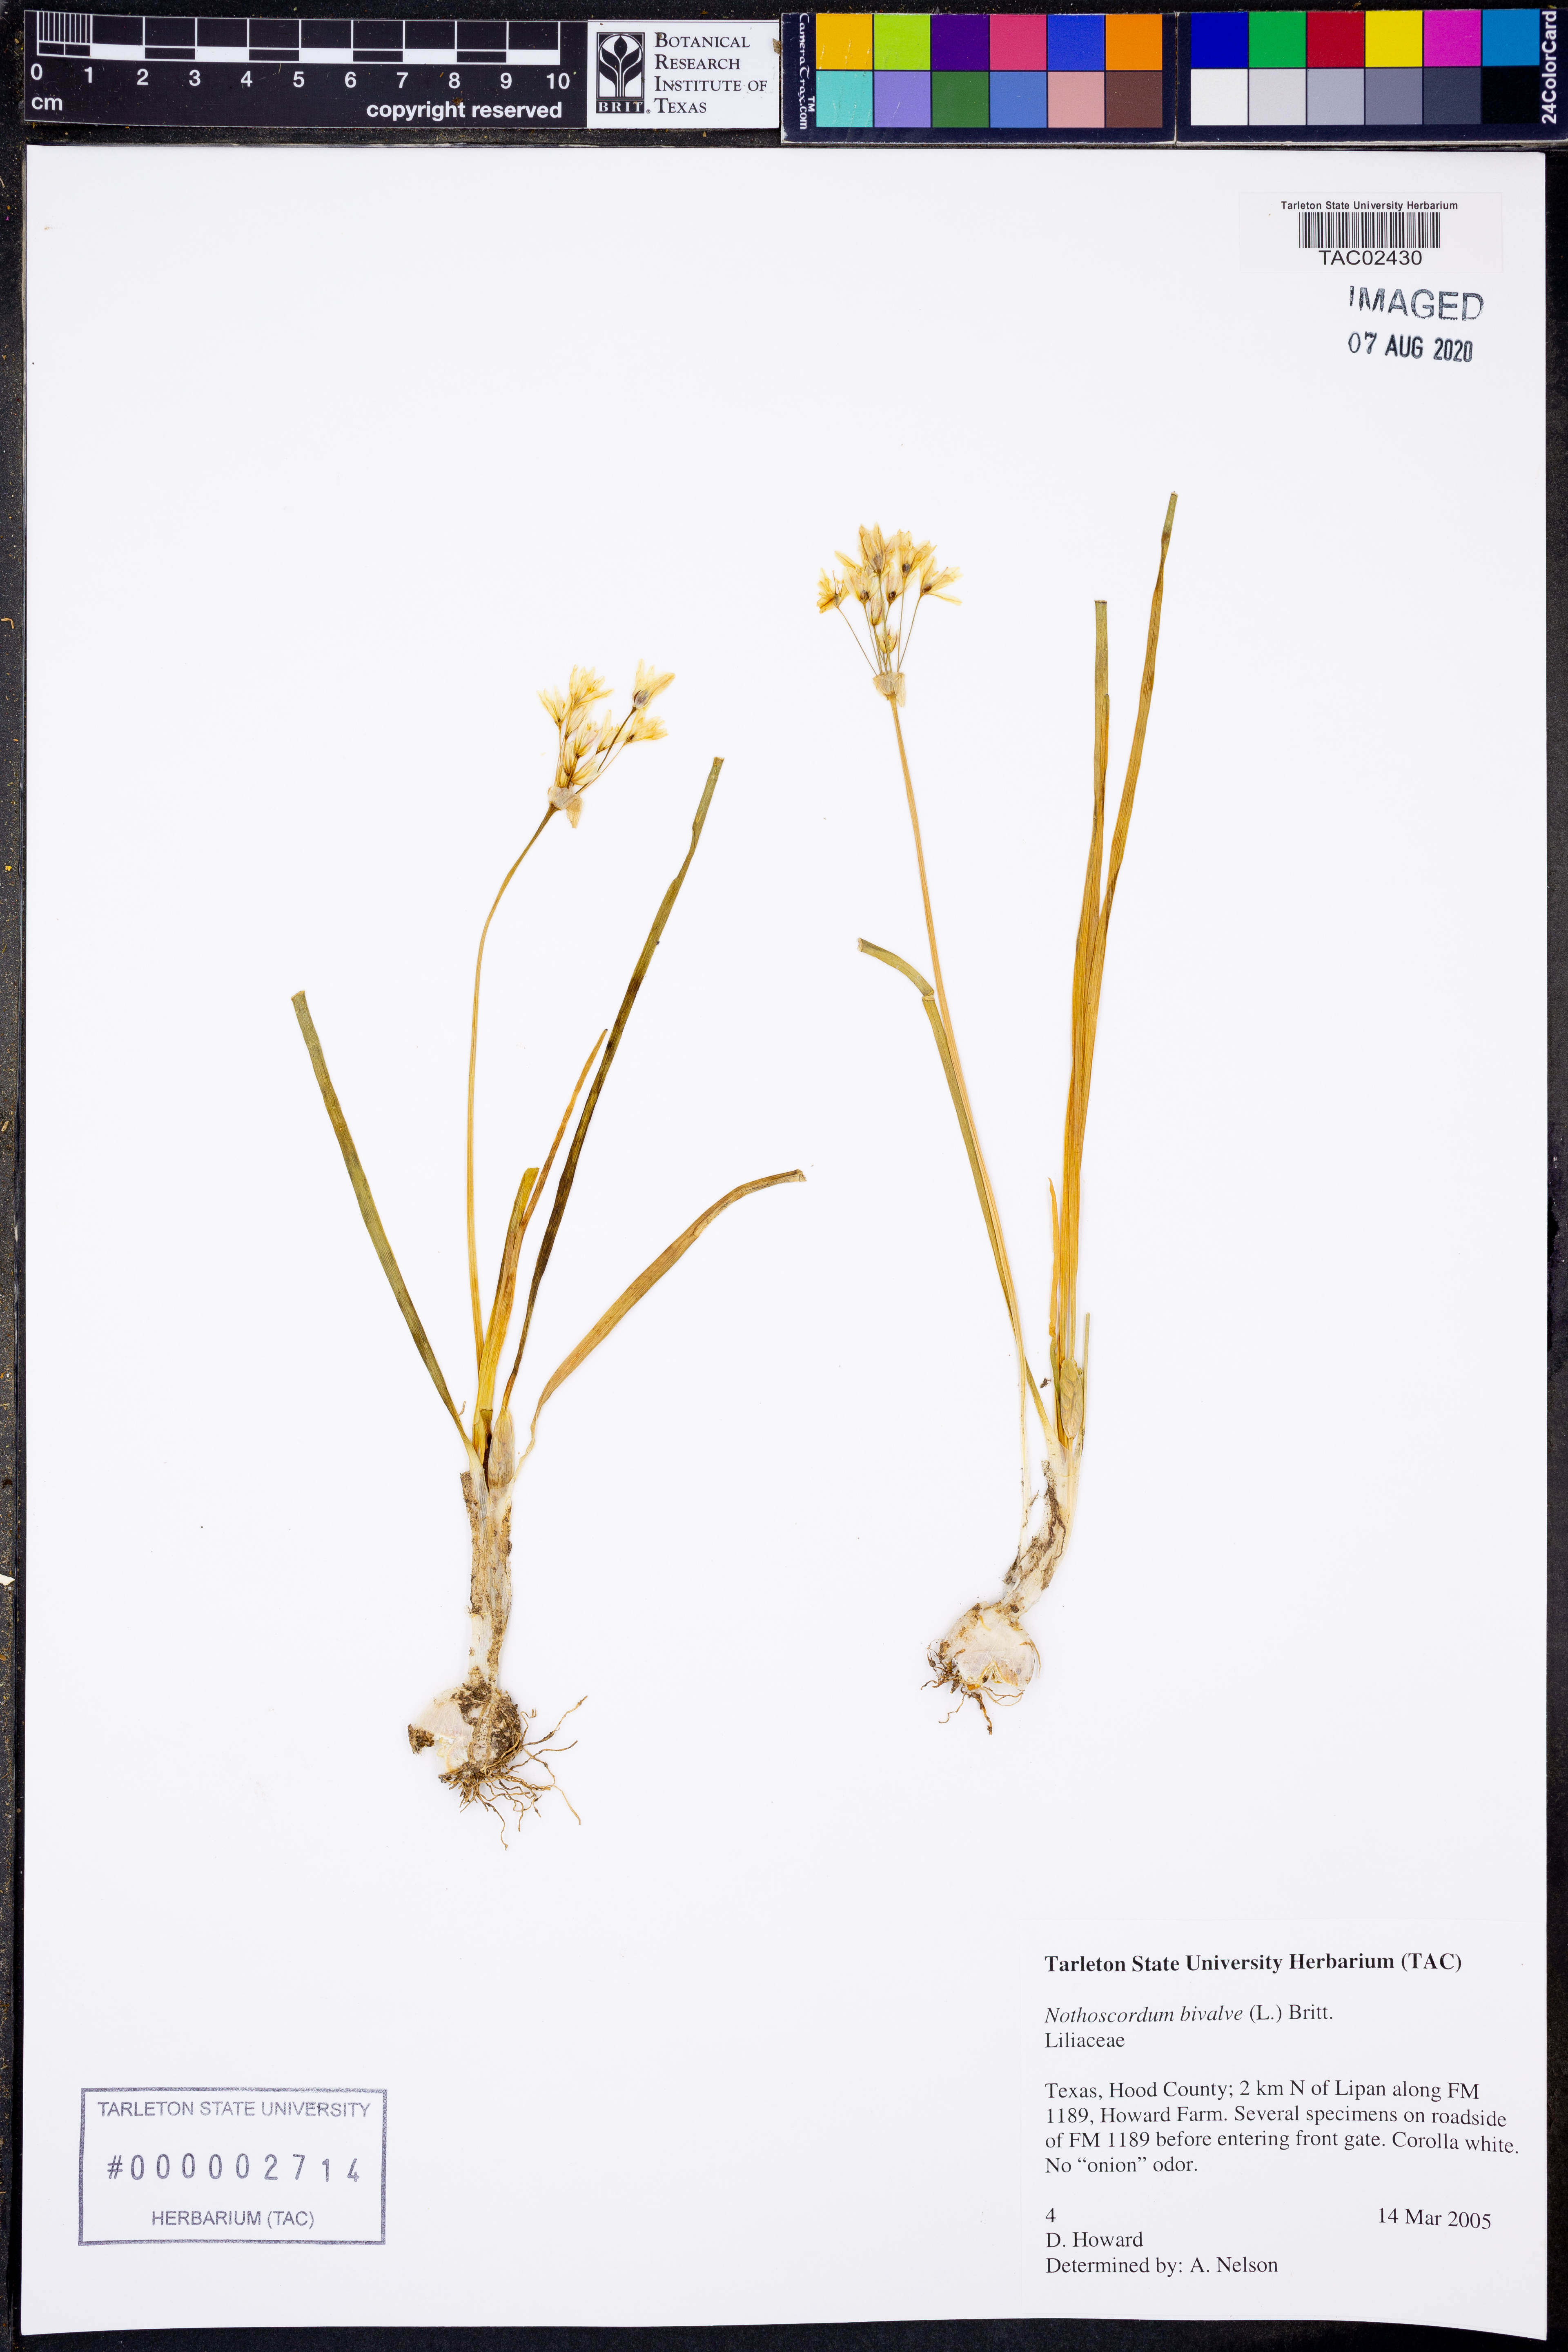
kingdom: Plantae
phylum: Tracheophyta
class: Liliopsida
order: Asparagales
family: Amaryllidaceae
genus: Nothoscordum
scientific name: Nothoscordum bivalve
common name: Crow-poison
